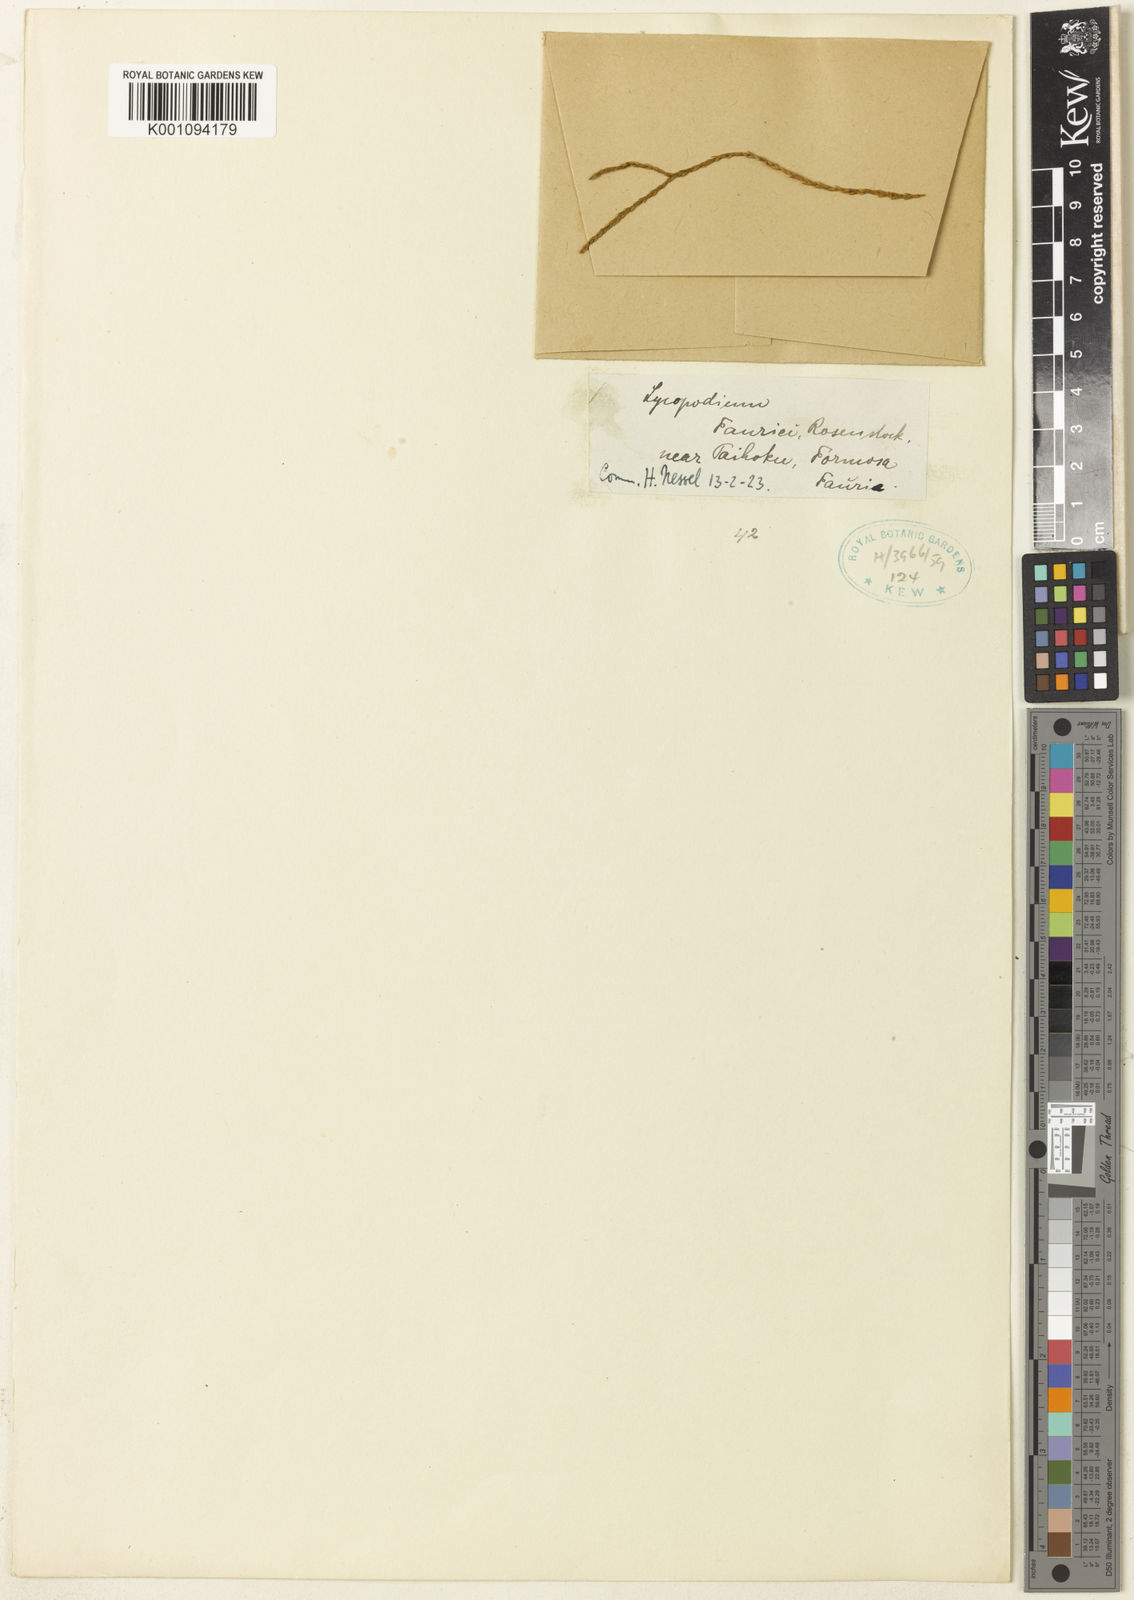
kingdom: Plantae
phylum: Tracheophyta
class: Lycopodiopsida
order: Lycopodiales
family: Lycopodiaceae
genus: Lycopodium
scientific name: Lycopodium
